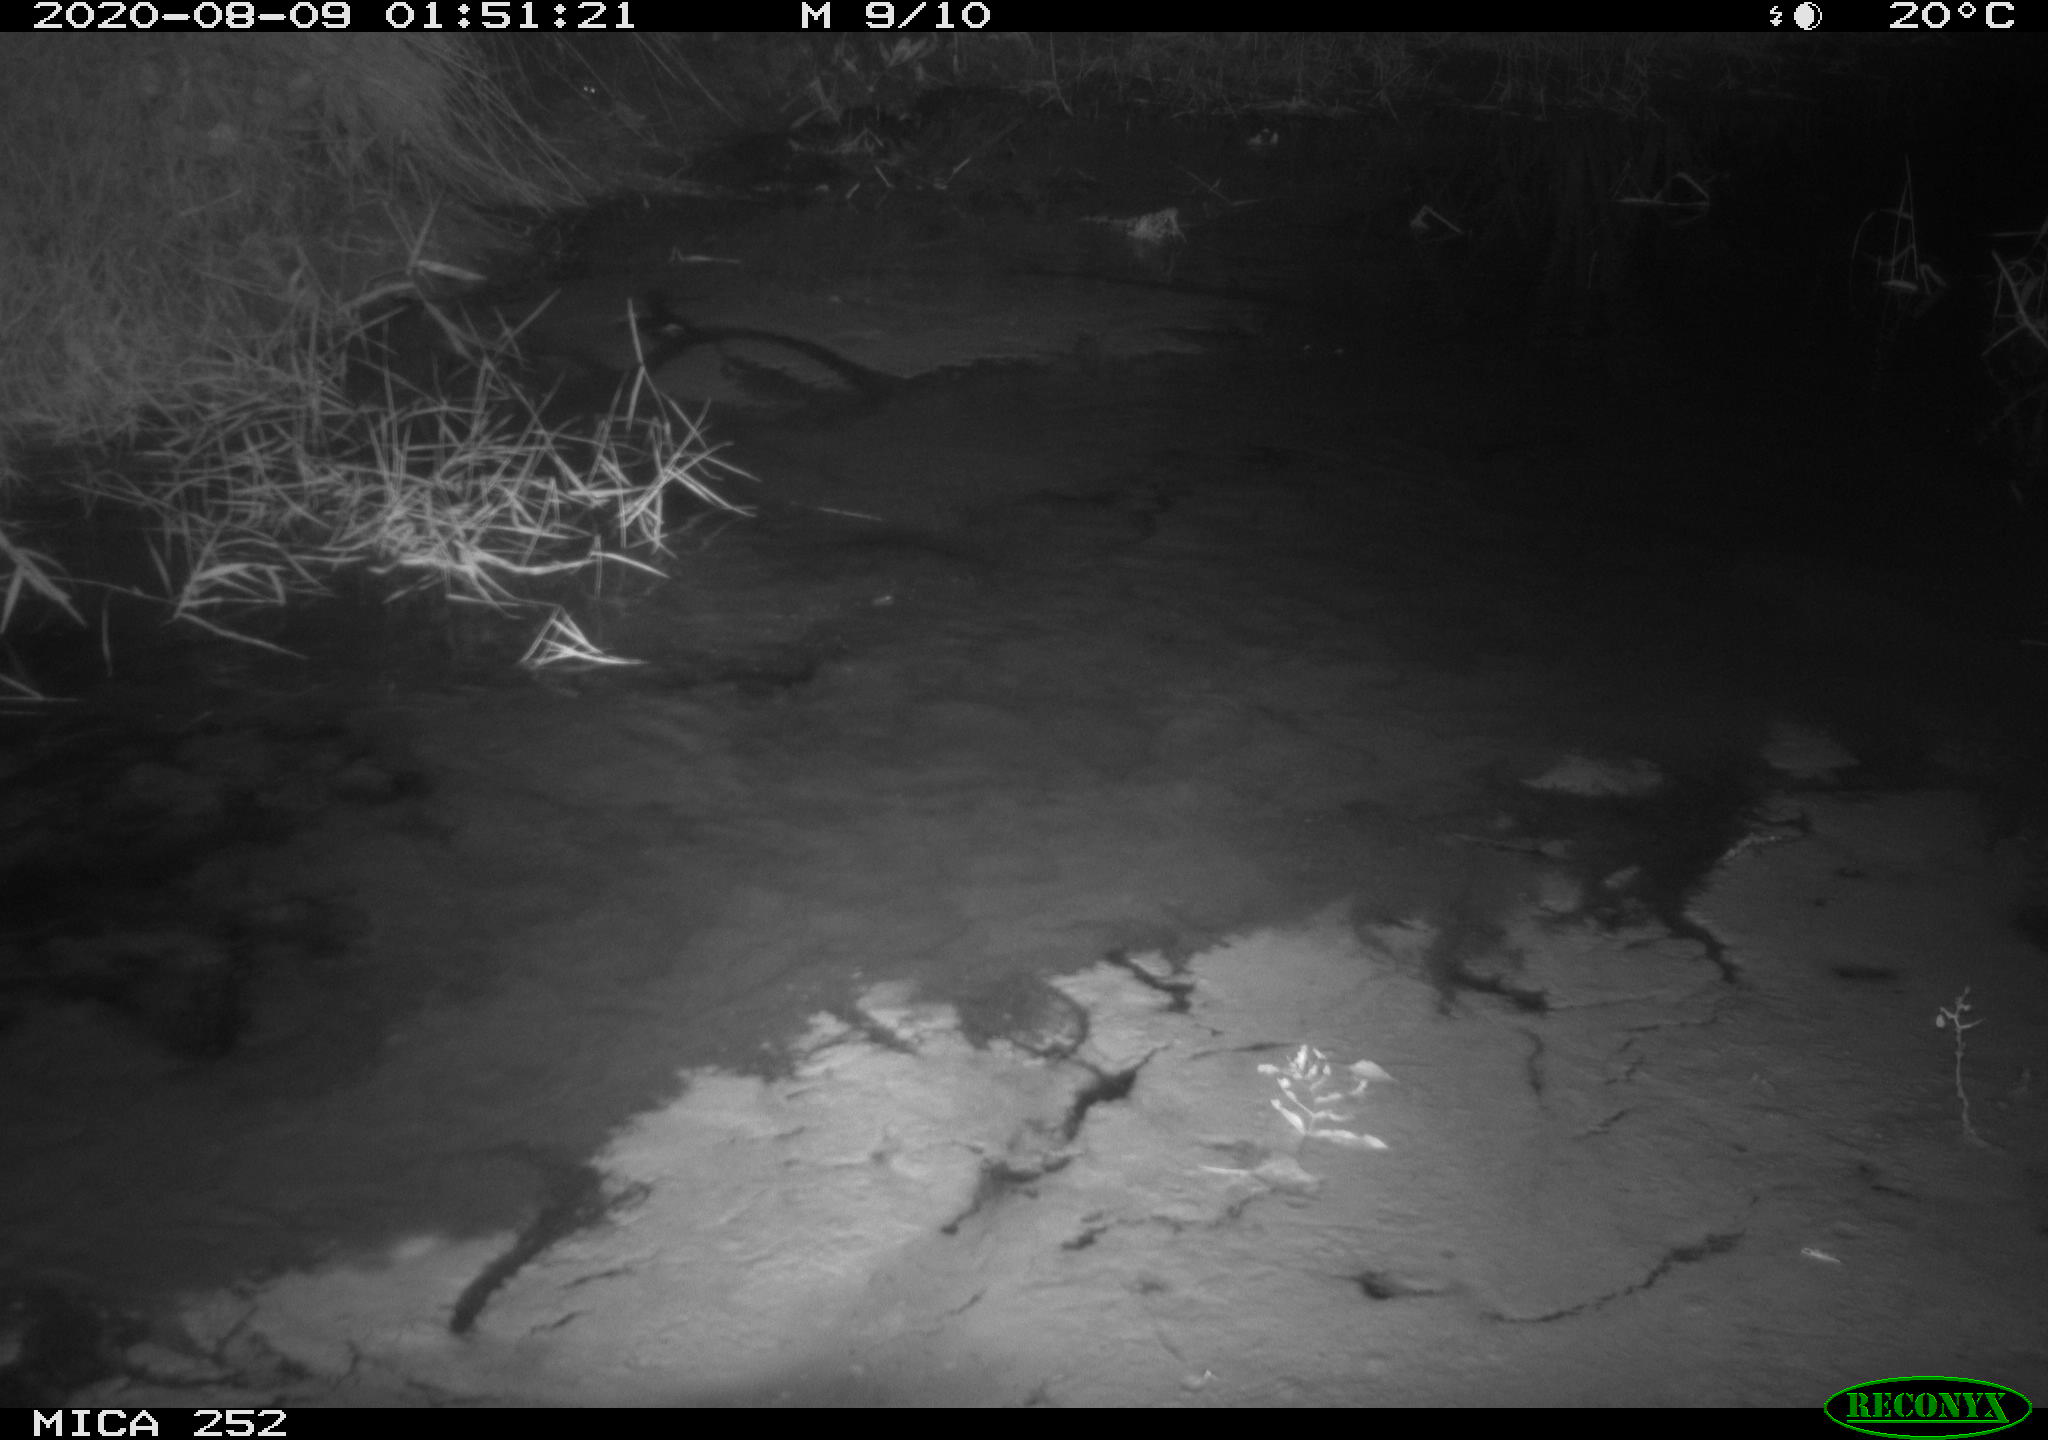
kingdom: Animalia
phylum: Chordata
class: Mammalia
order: Rodentia
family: Castoridae
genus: Castor
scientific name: Castor fiber
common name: Eurasian beaver
